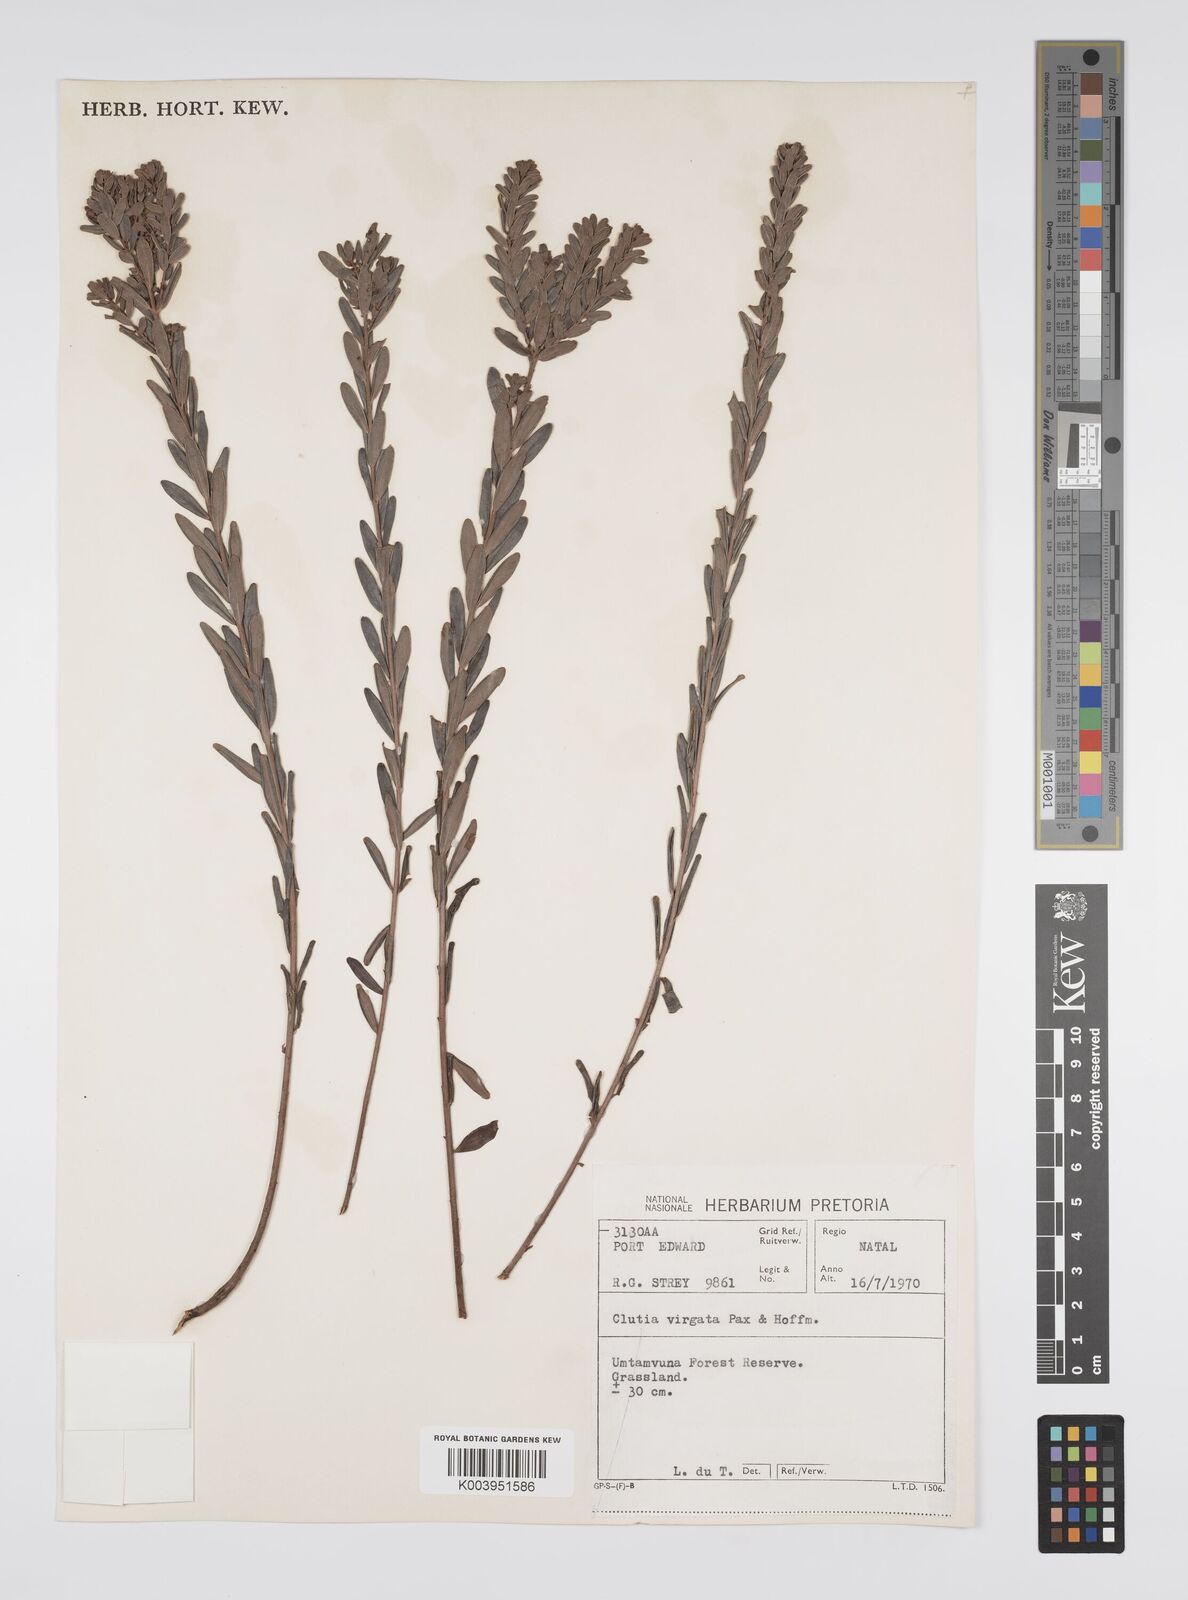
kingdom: Plantae
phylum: Tracheophyta
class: Magnoliopsida
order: Malpighiales
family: Peraceae
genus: Clutia
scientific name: Clutia virgata
